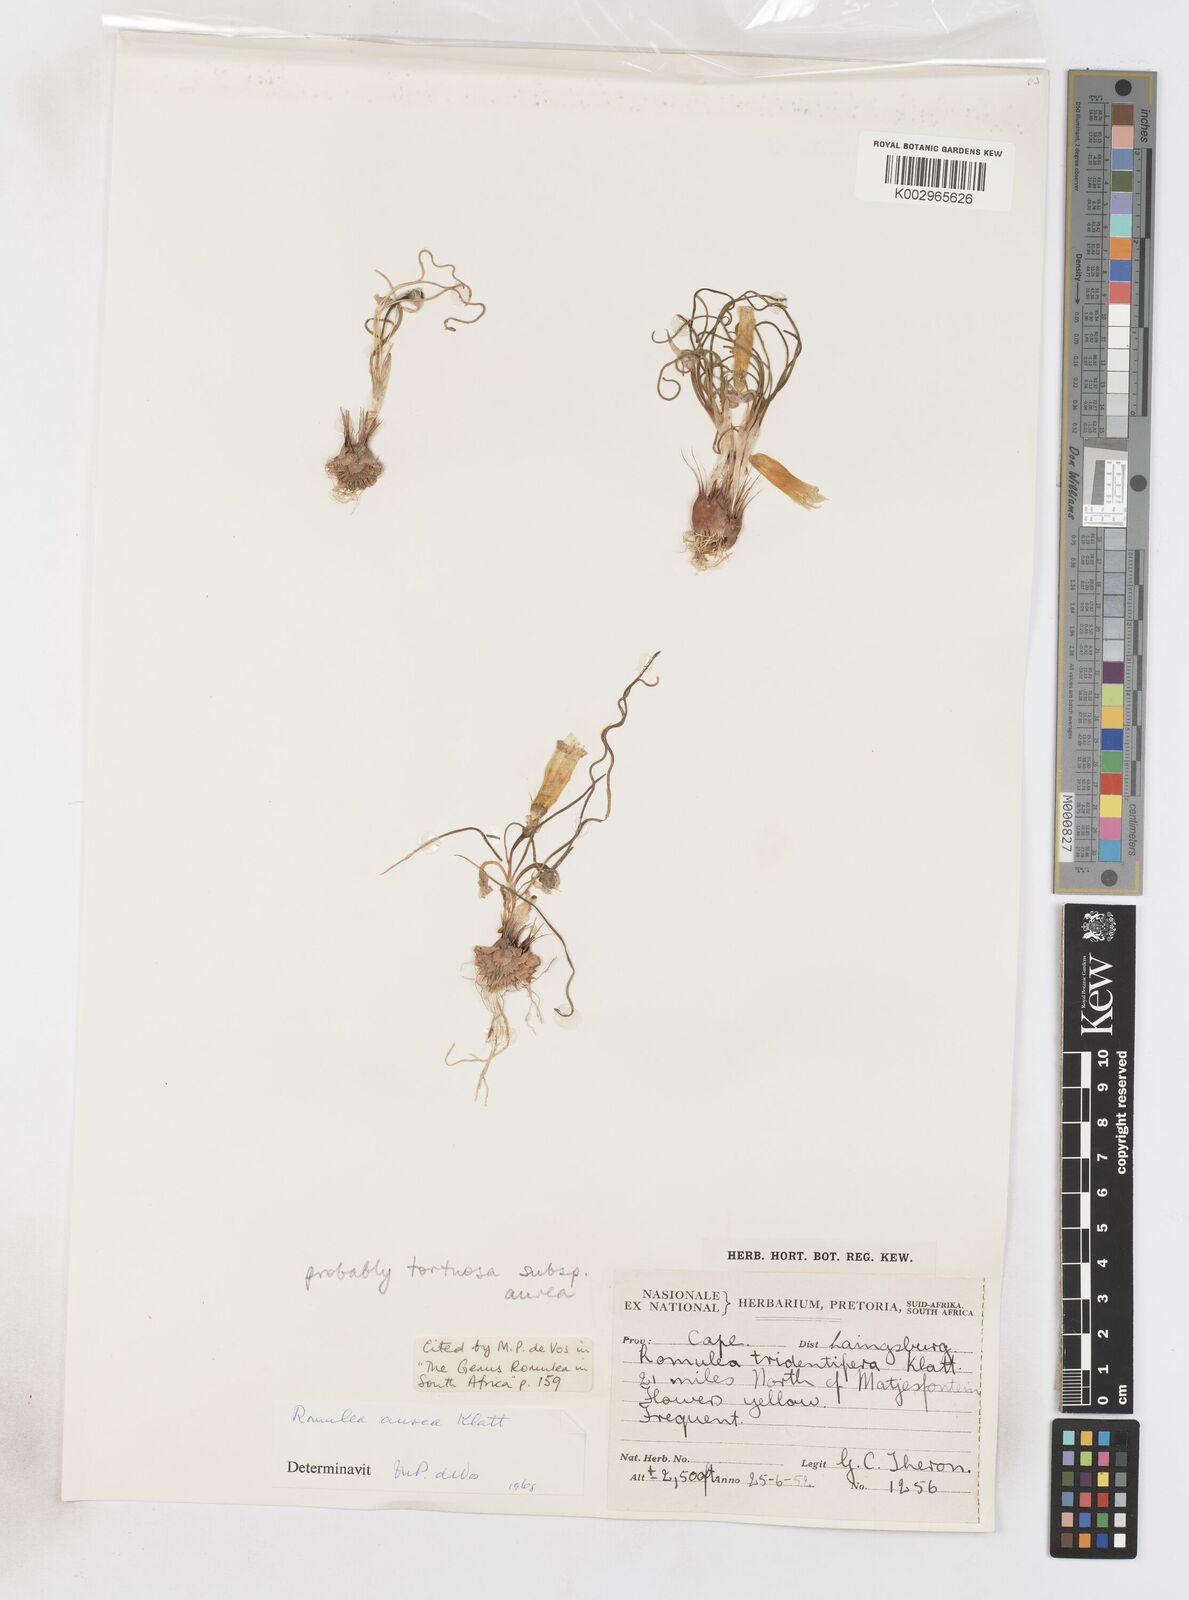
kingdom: Plantae
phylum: Tracheophyta
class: Liliopsida
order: Asparagales
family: Iridaceae
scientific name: Iridaceae
